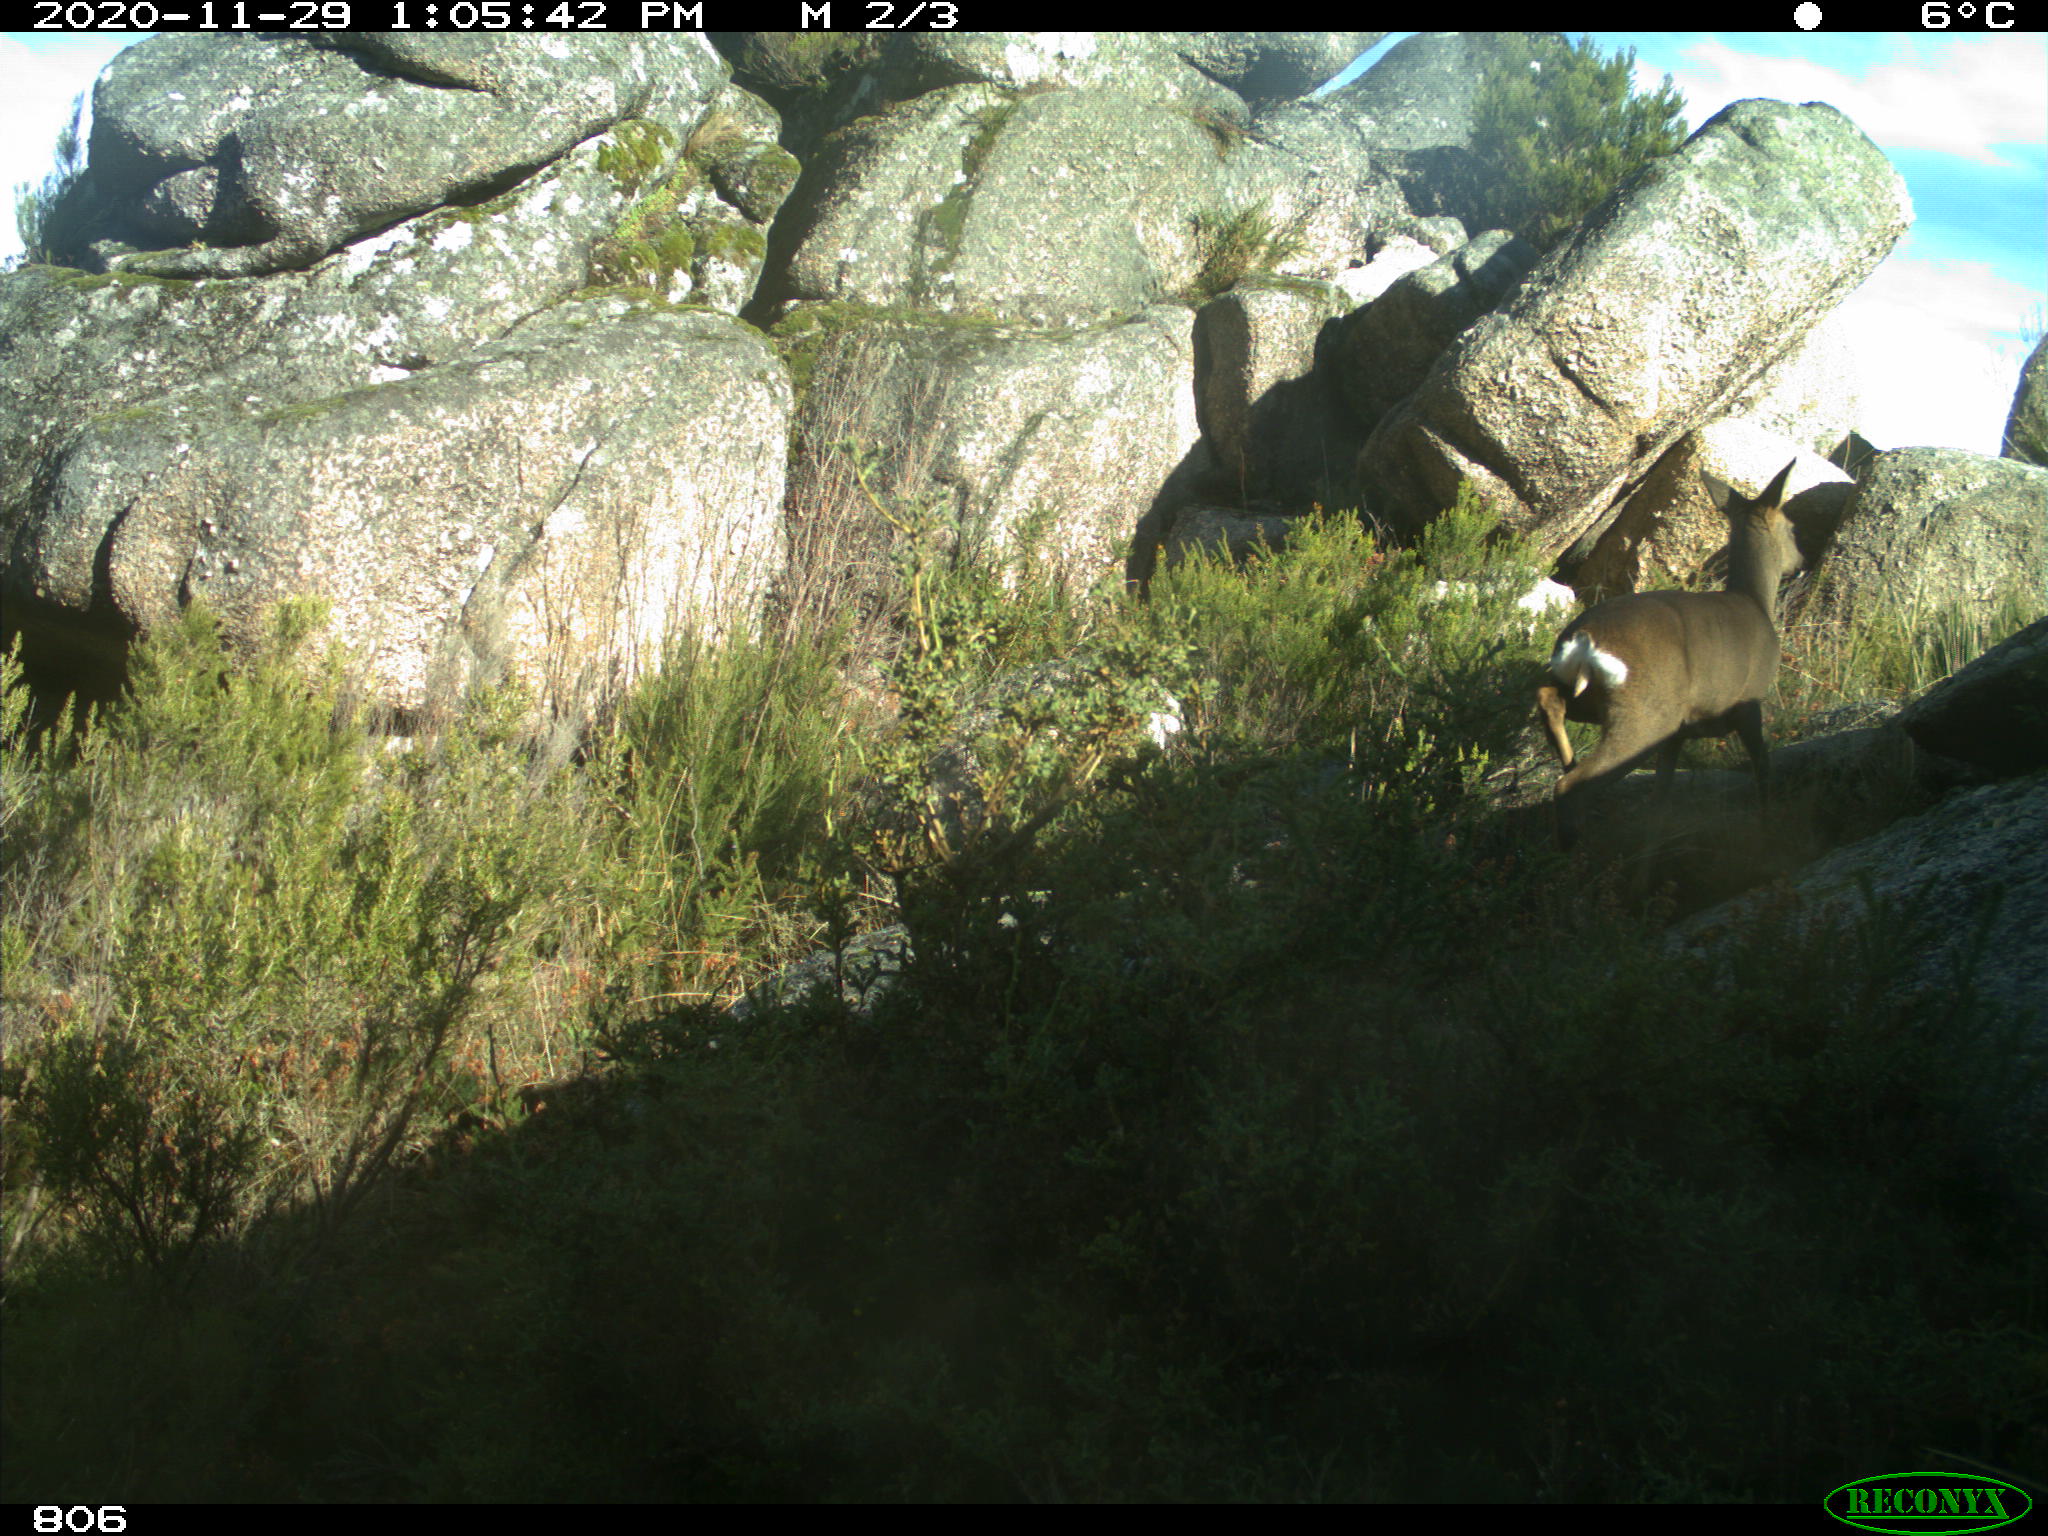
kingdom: Animalia
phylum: Chordata
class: Mammalia
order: Artiodactyla
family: Cervidae
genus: Capreolus
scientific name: Capreolus capreolus
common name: Western roe deer
